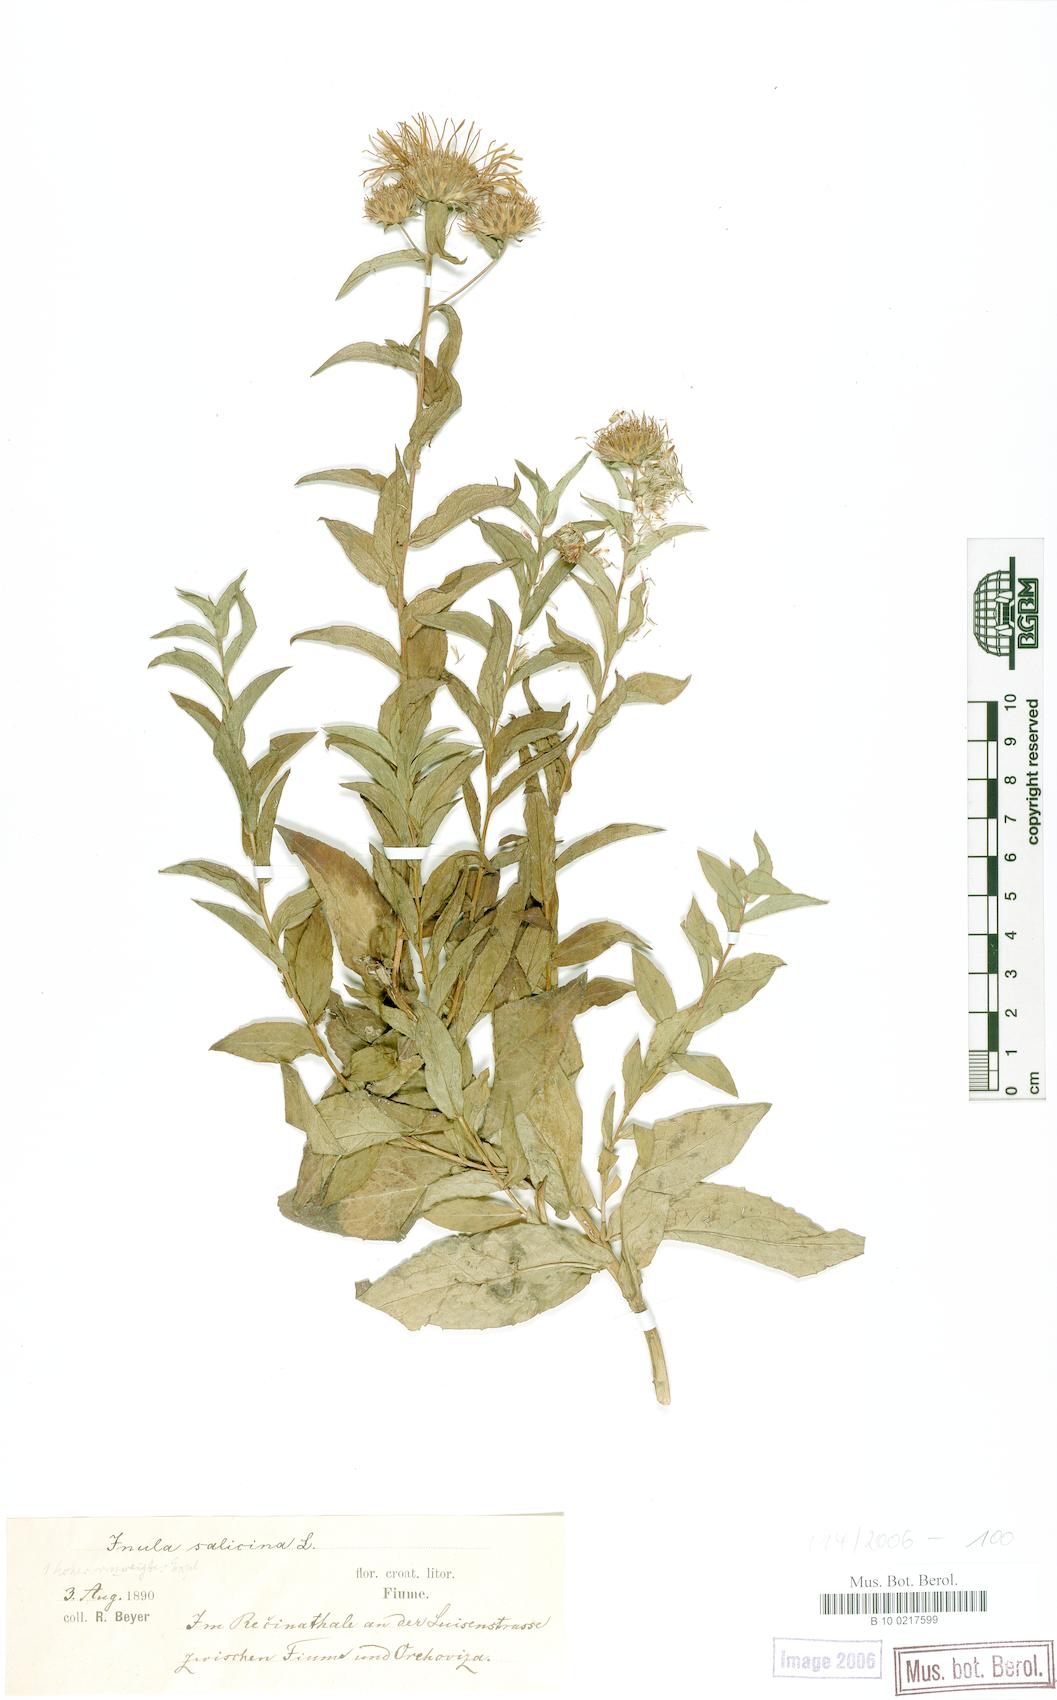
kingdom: Plantae
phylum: Tracheophyta
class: Magnoliopsida
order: Asterales
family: Asteraceae
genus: Pentanema
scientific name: Pentanema salicinum
